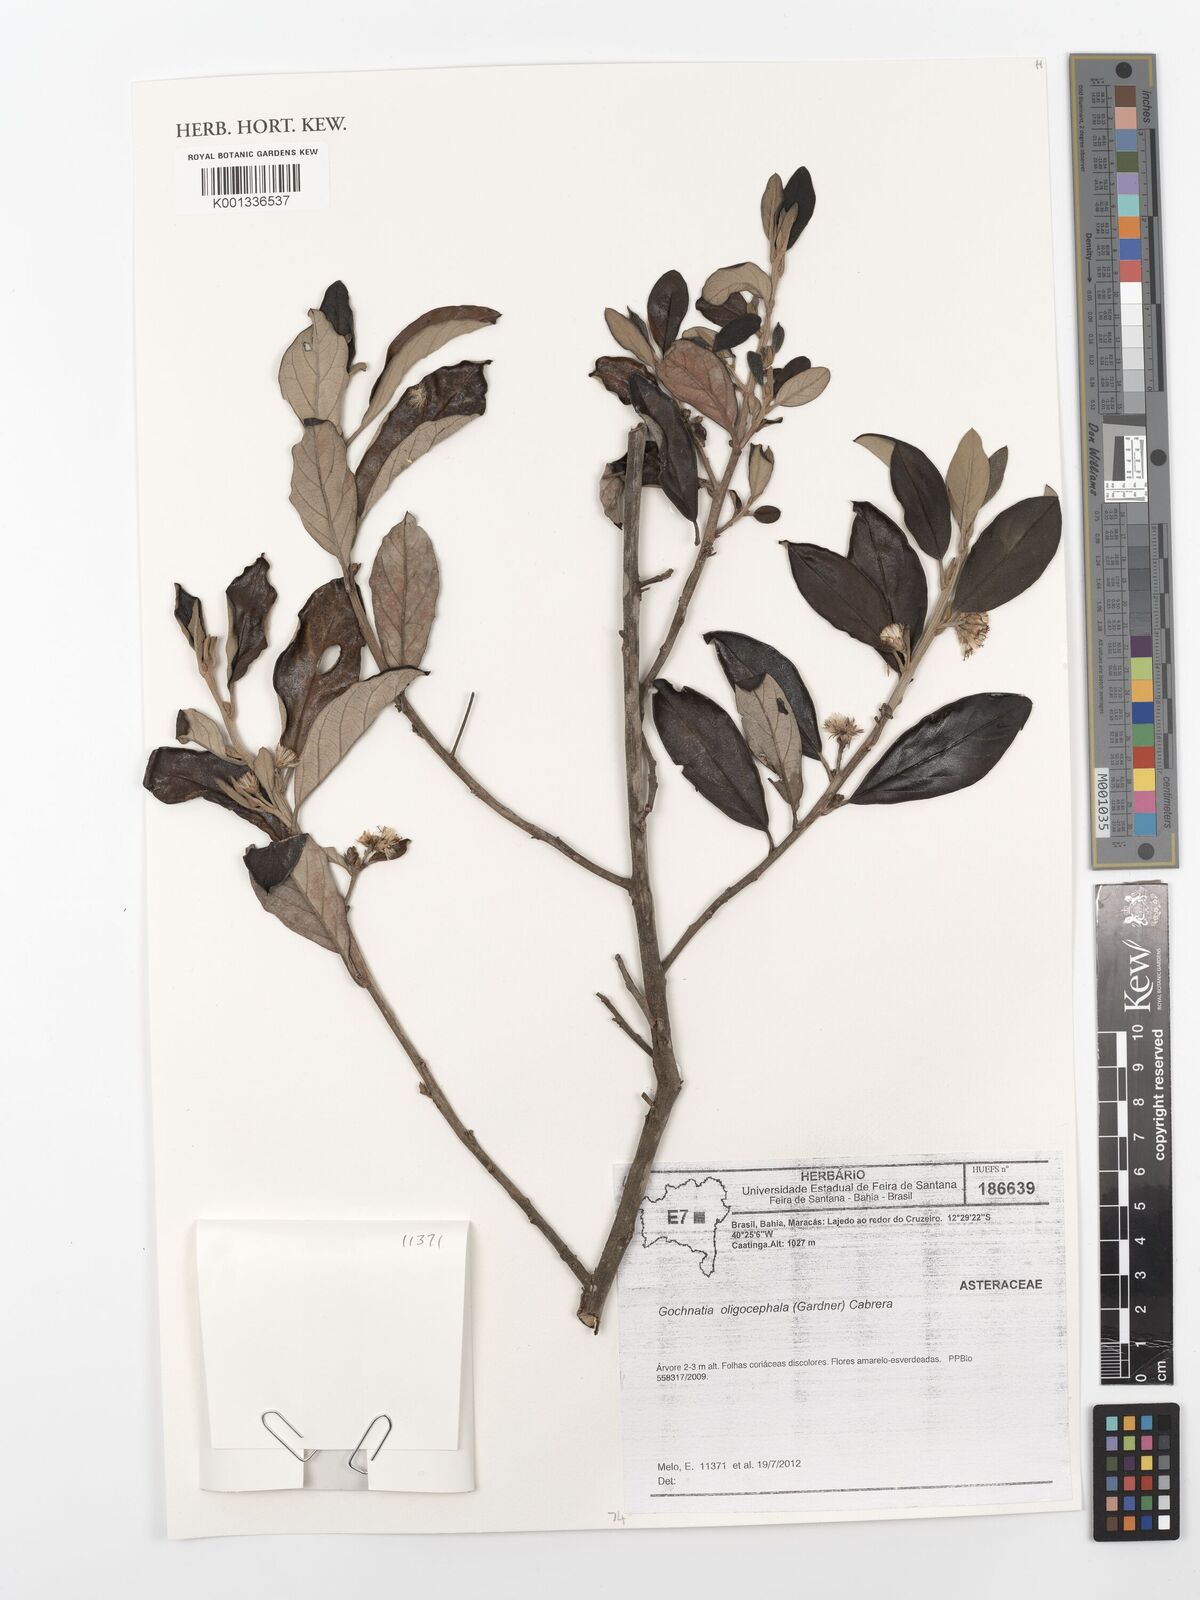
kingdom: Plantae
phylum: Tracheophyta
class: Magnoliopsida
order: Asterales
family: Asteraceae
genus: Moquiniastrum
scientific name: Moquiniastrum oligocephalum
